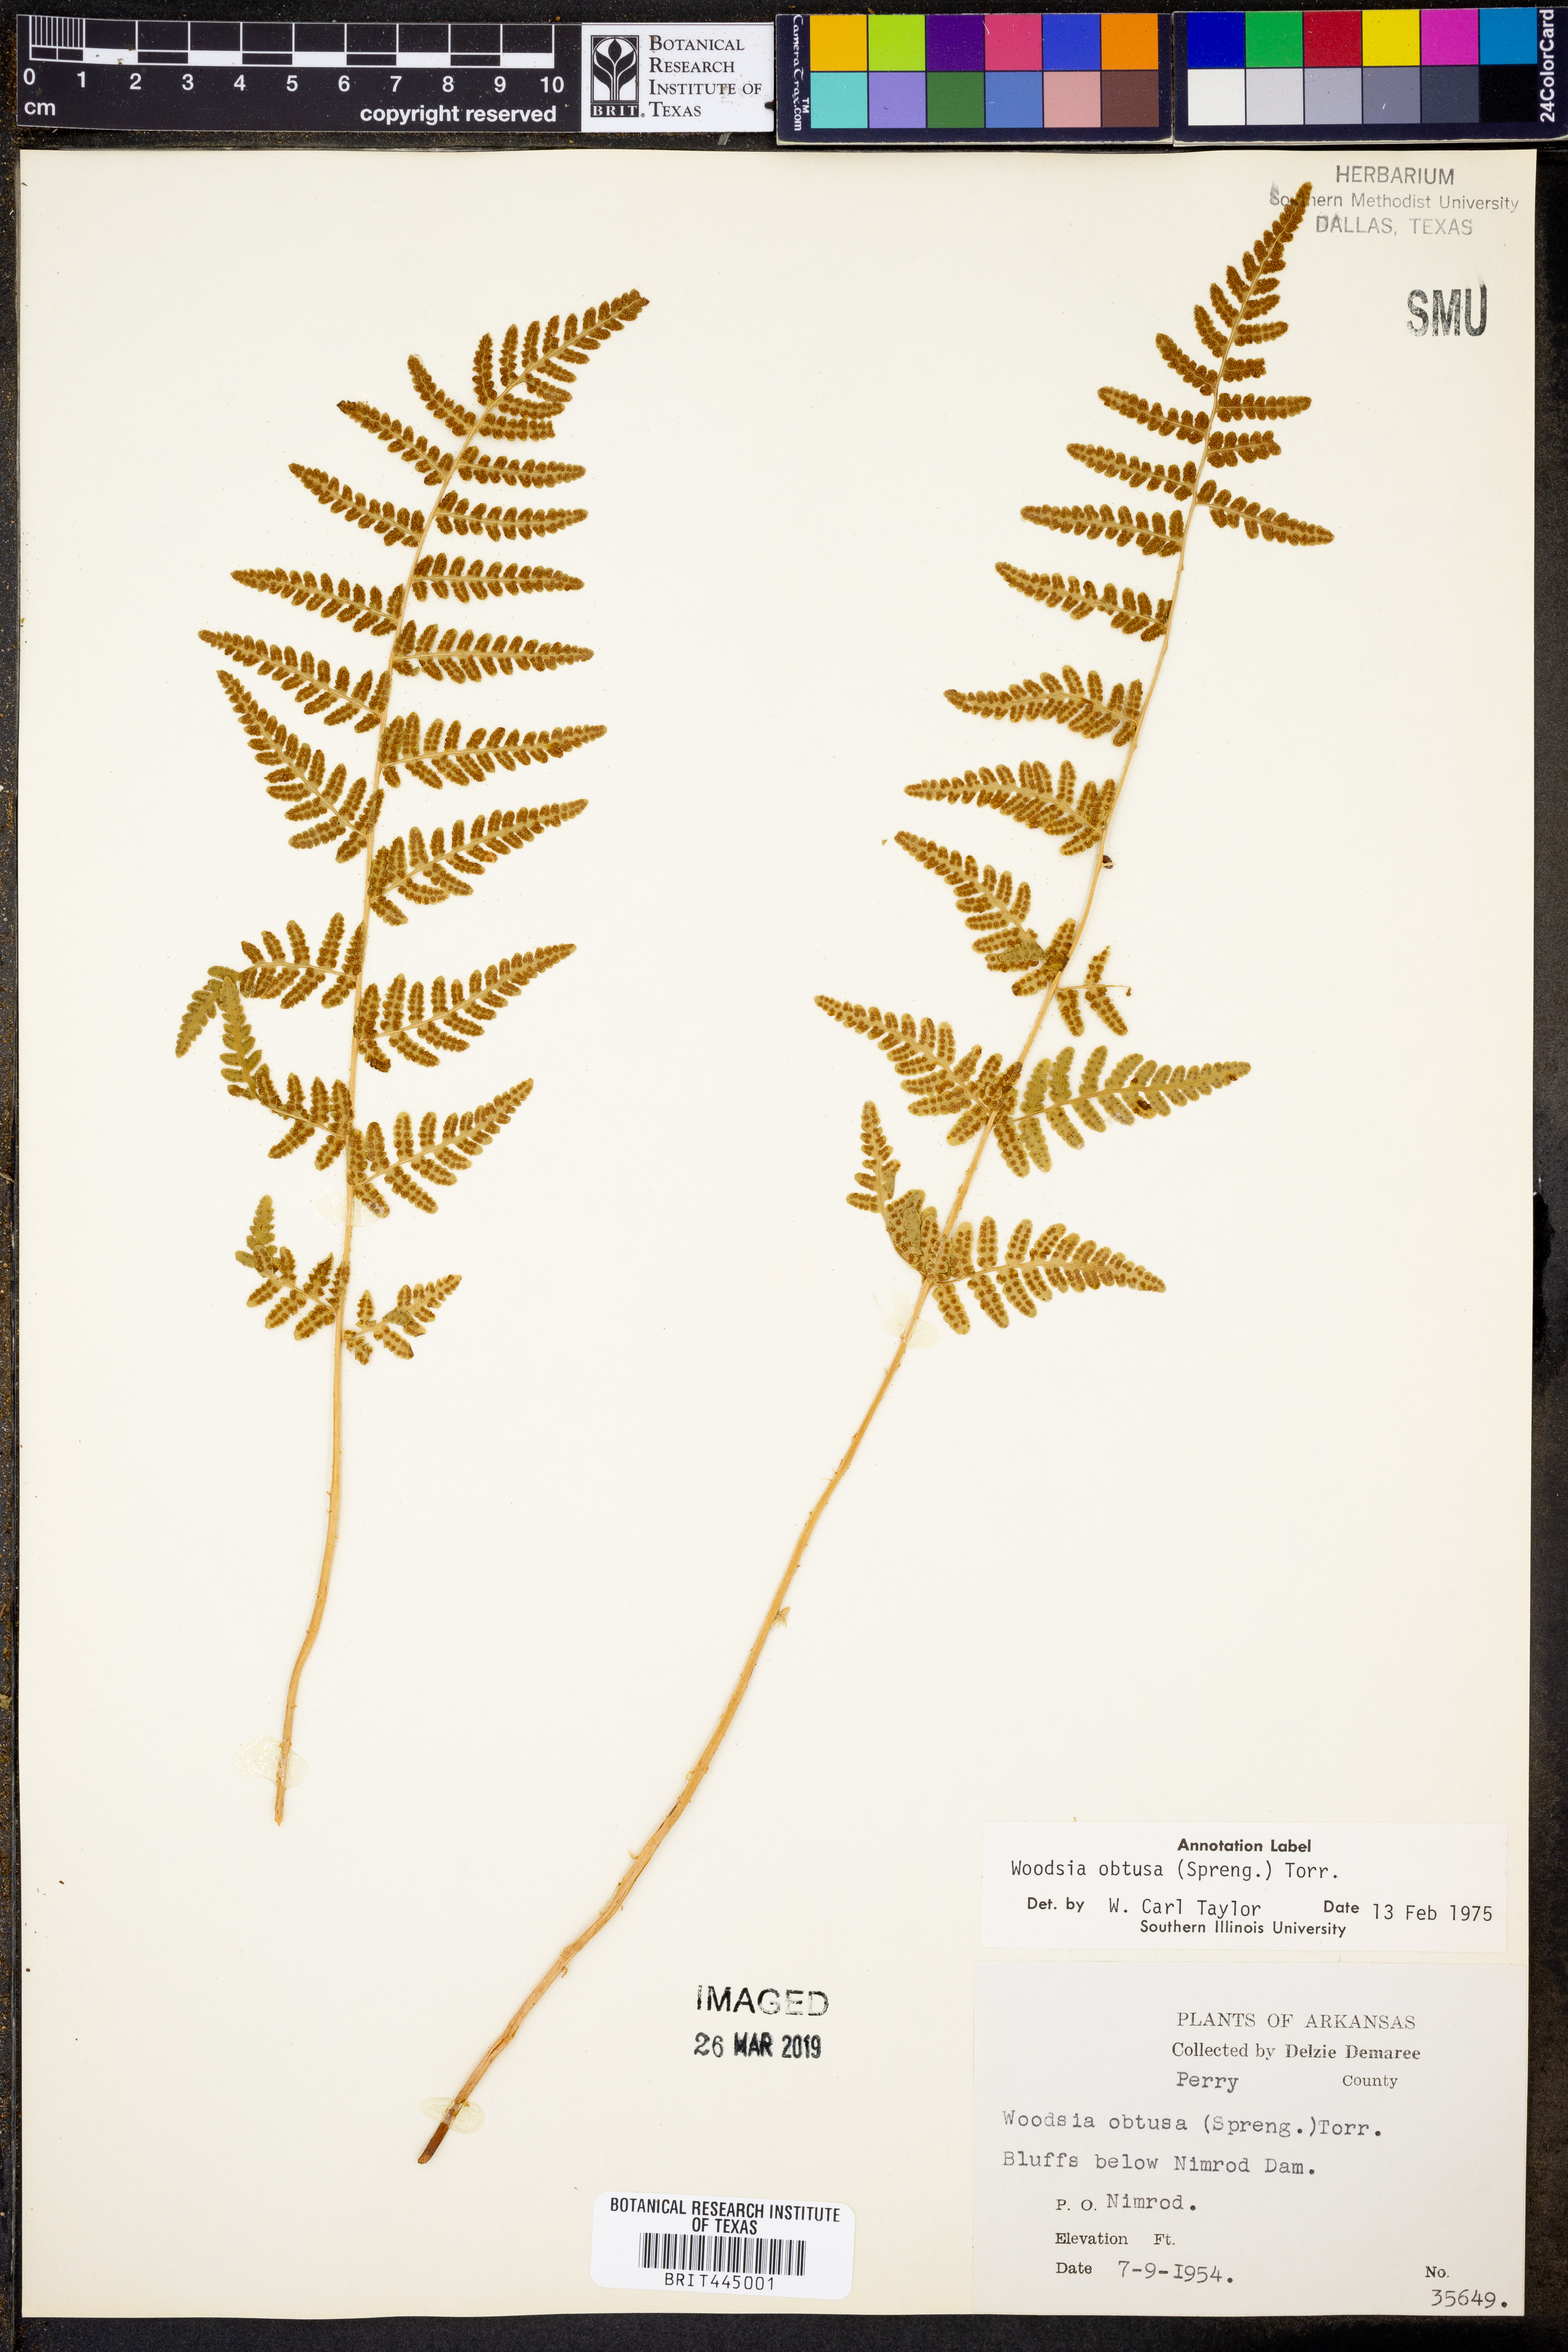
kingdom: Plantae
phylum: Tracheophyta
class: Polypodiopsida
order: Polypodiales
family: Woodsiaceae
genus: Physematium
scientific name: Physematium obtusum
